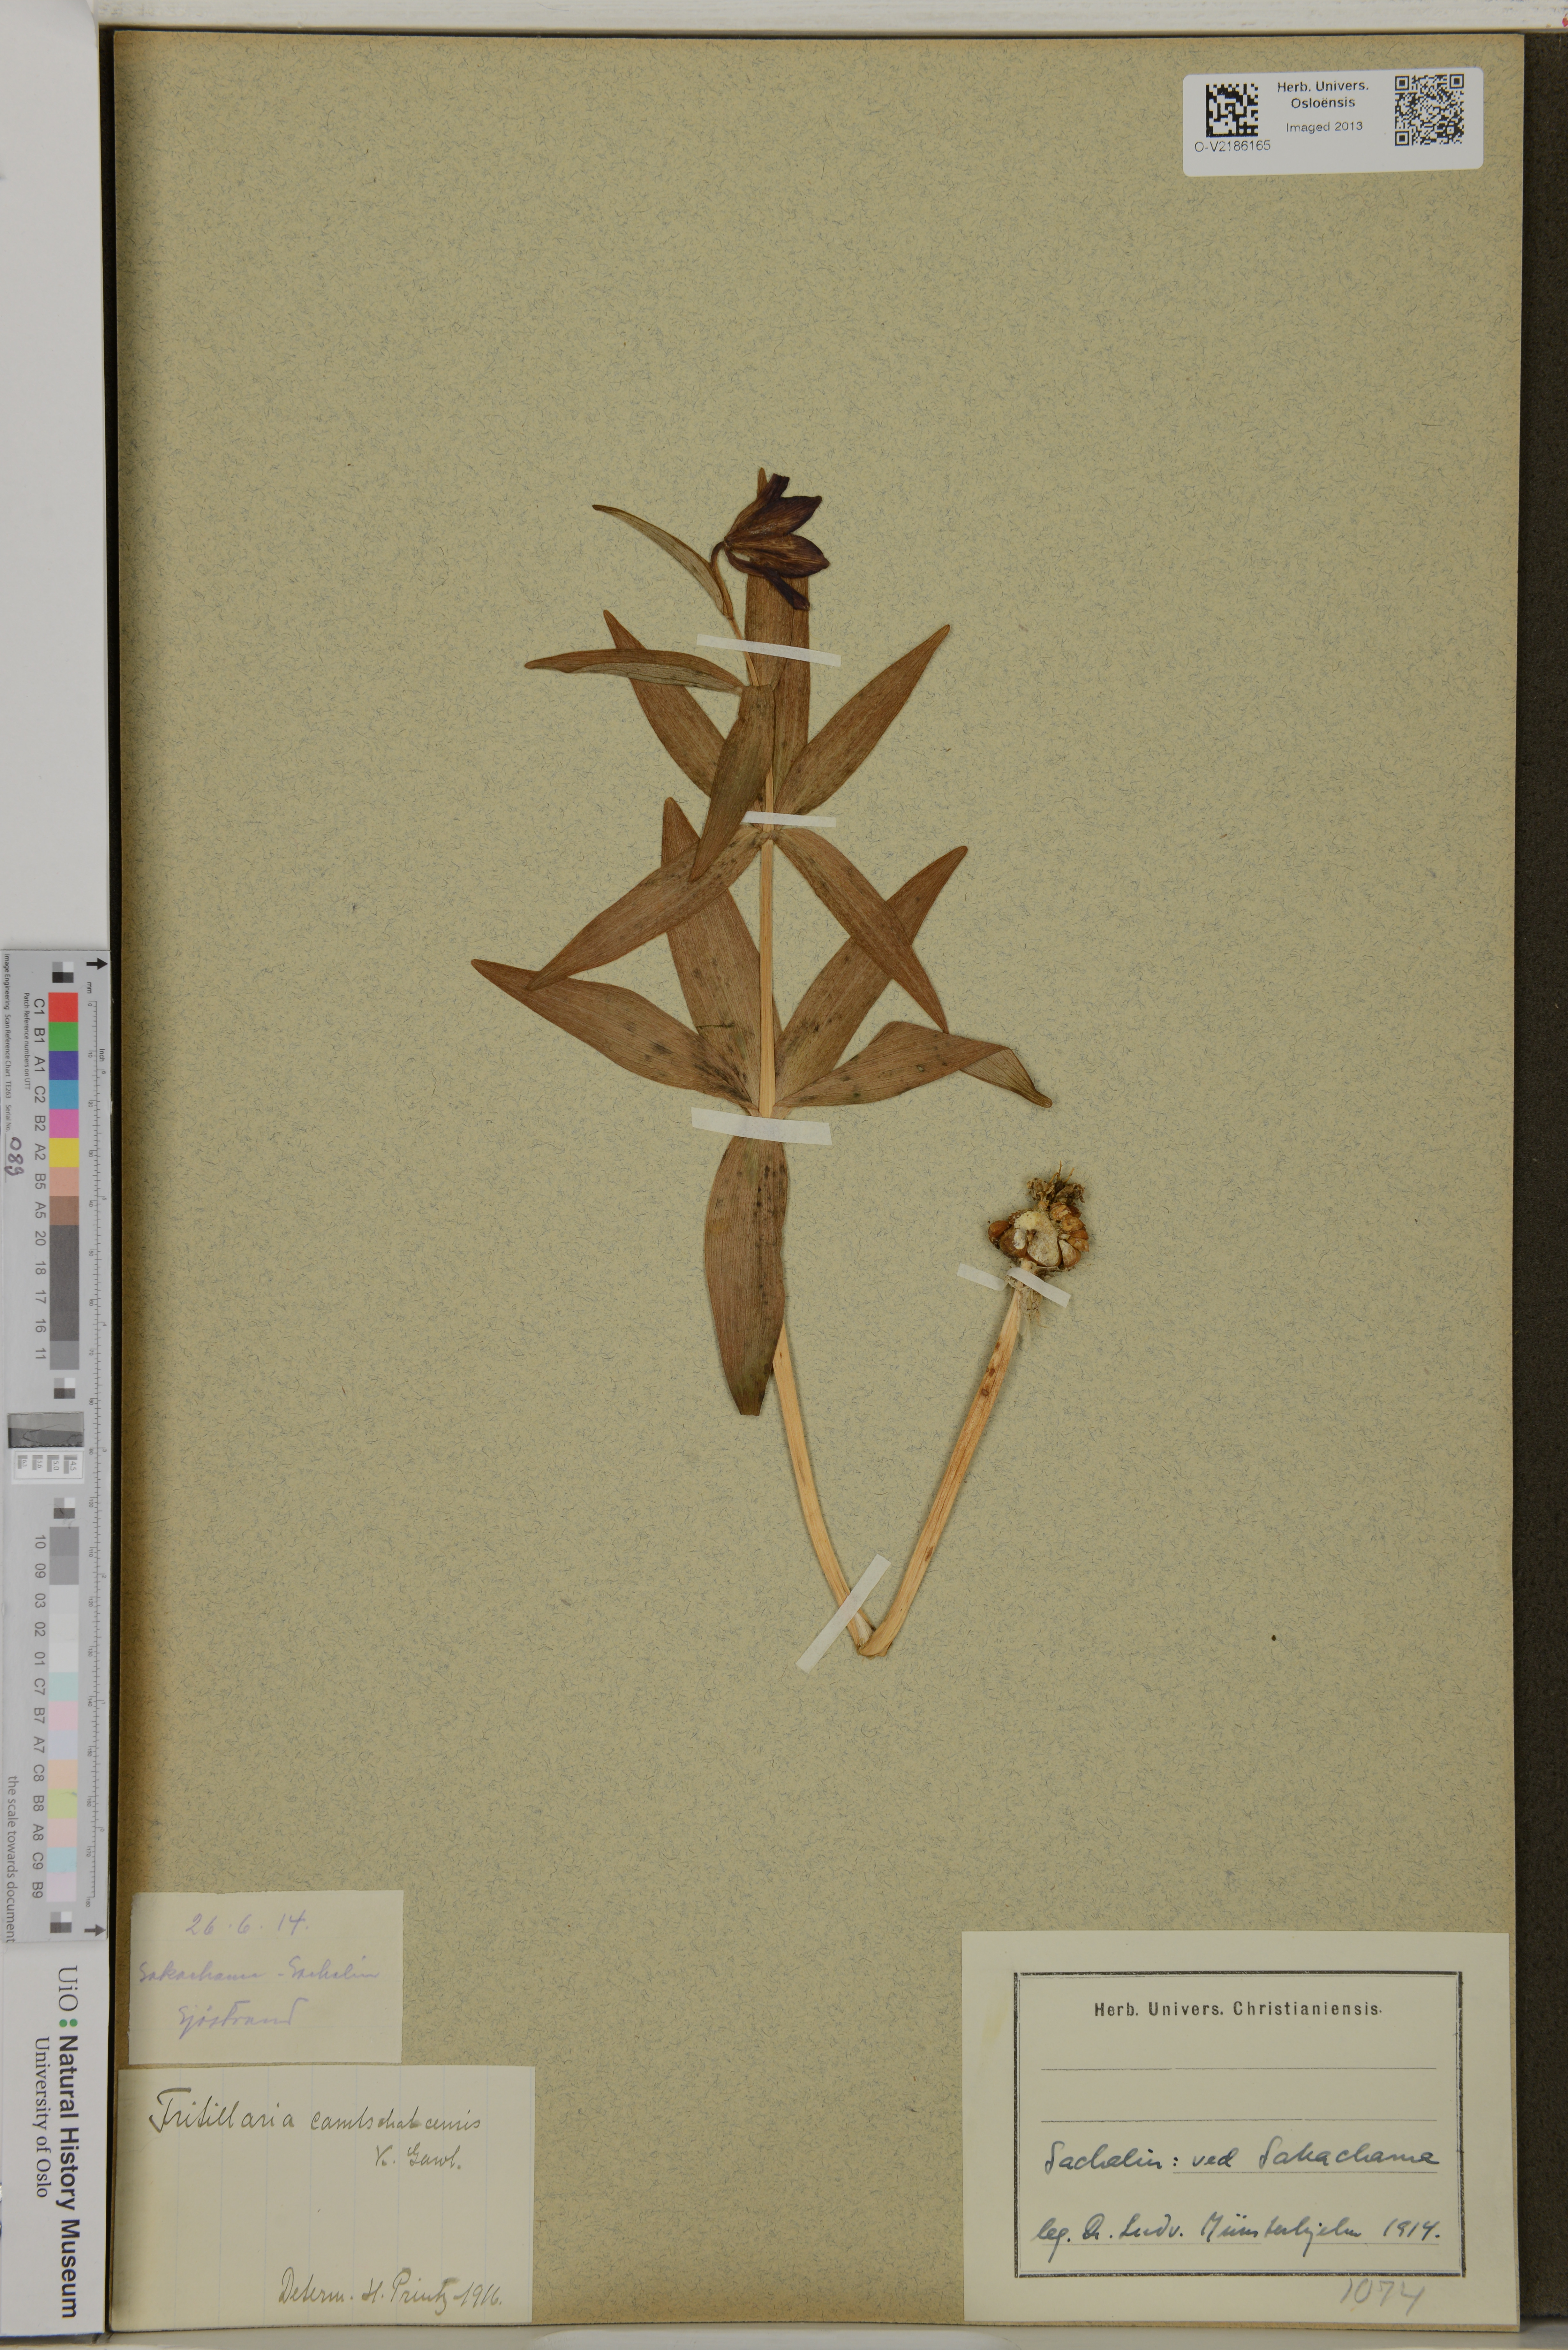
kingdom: Plantae
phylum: Tracheophyta
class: Liliopsida
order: Liliales
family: Liliaceae
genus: Fritillaria
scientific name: Fritillaria camschatcensis
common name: Kamchatka fritillary
